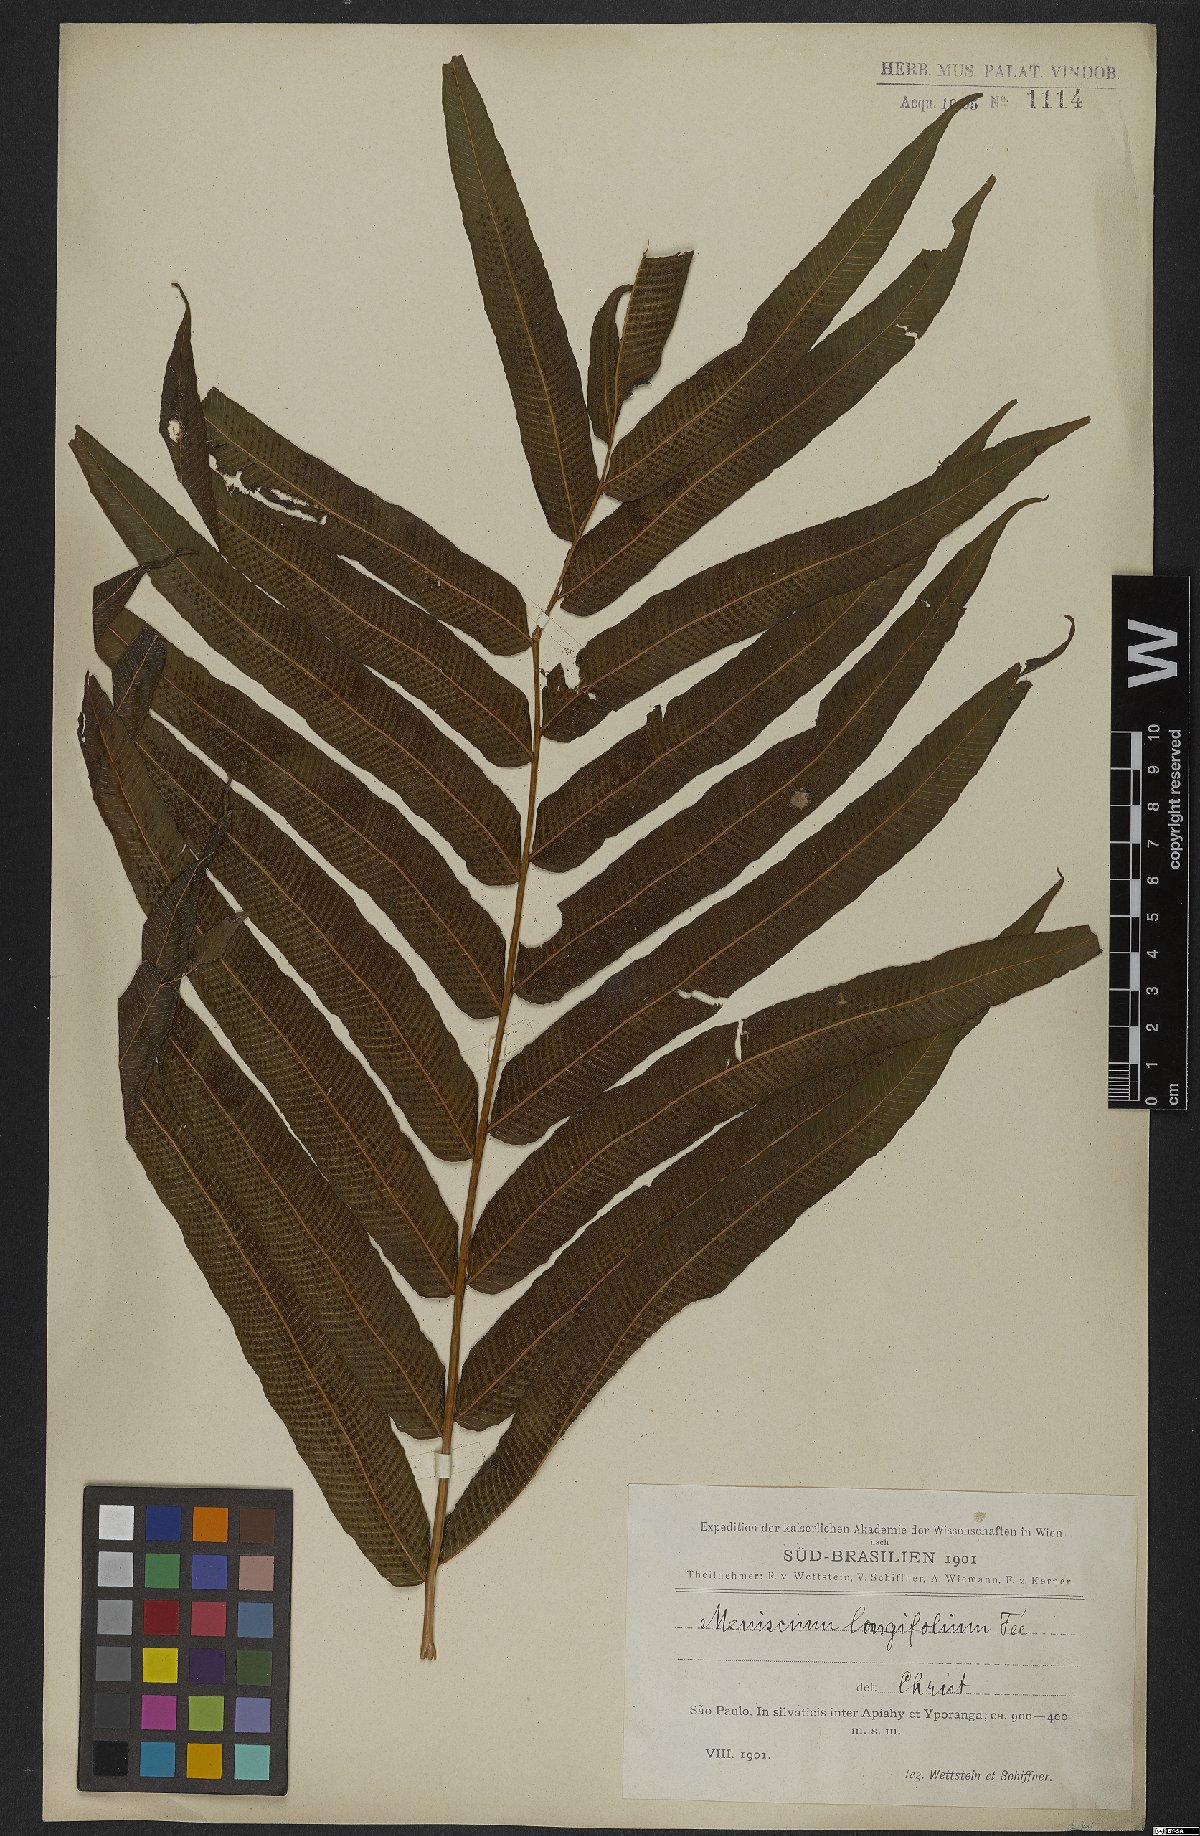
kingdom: Plantae
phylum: Tracheophyta
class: Polypodiopsida
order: Polypodiales
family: Thelypteridaceae
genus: Meniscium
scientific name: Meniscium reticulatum
